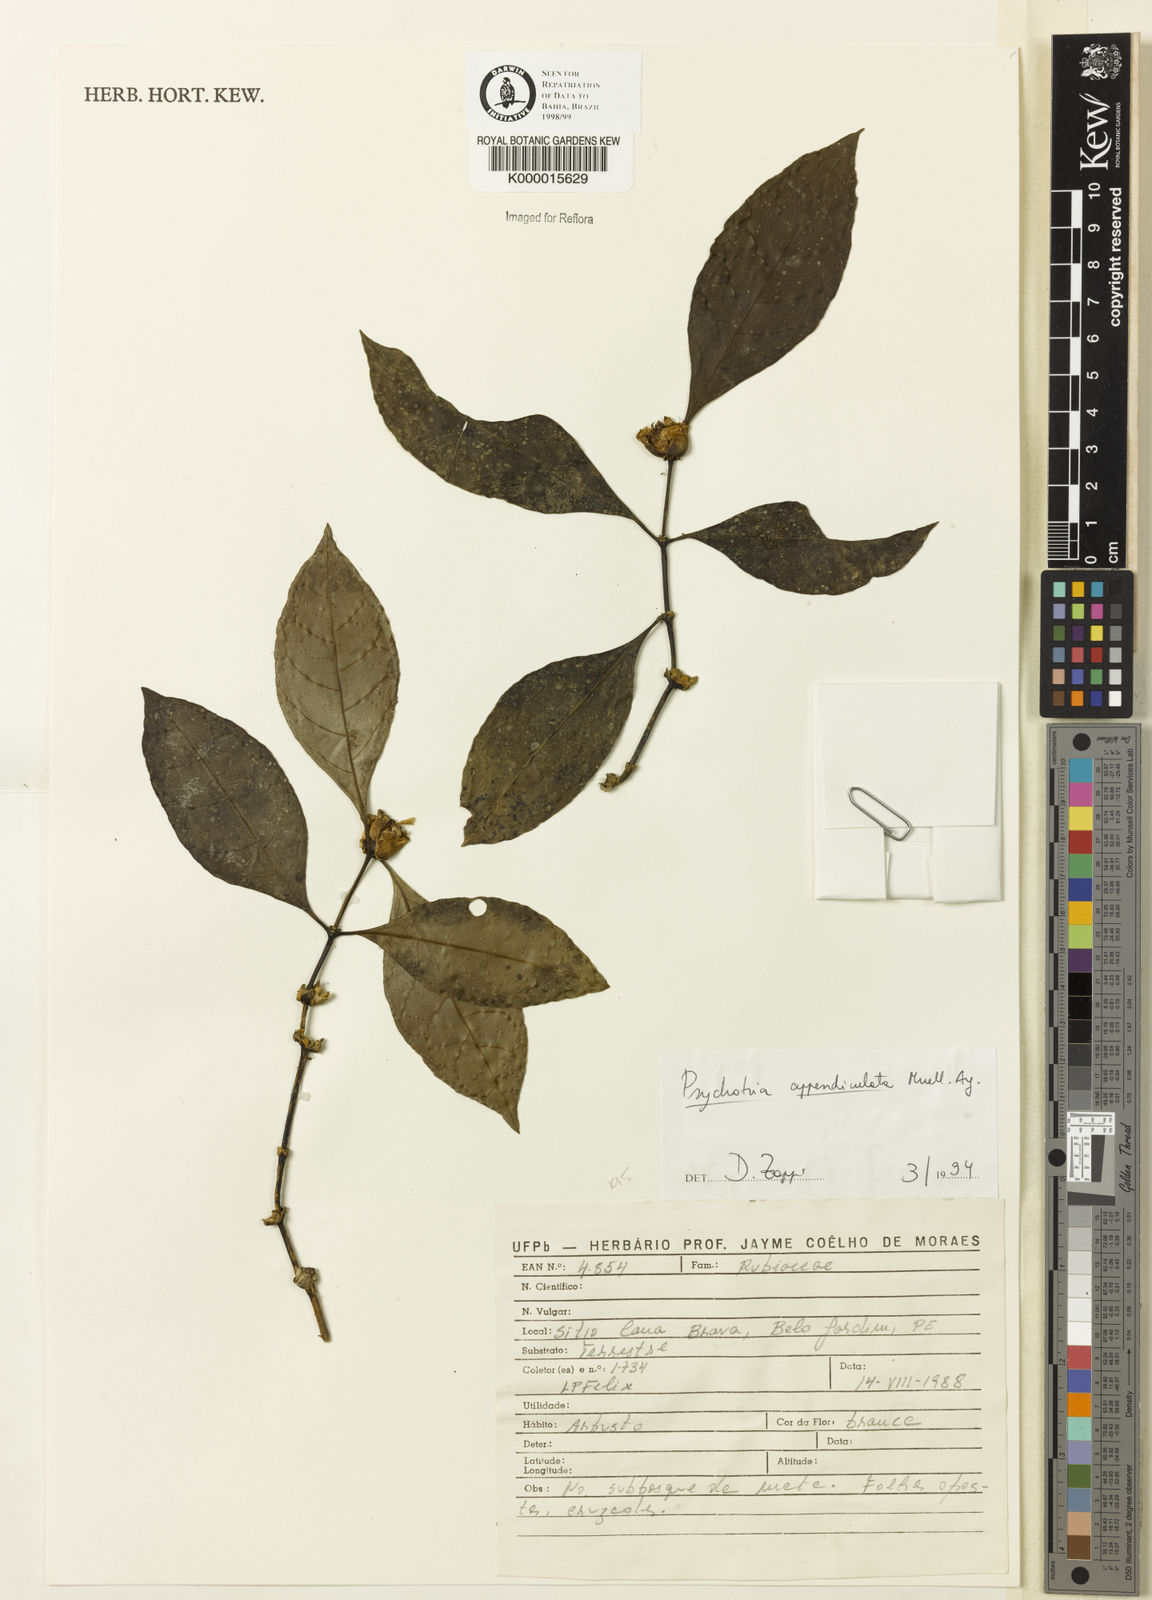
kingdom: Plantae
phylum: Tracheophyta
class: Magnoliopsida
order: Gentianales
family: Rubiaceae
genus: Psychotria
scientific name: Psychotria appendiculata
